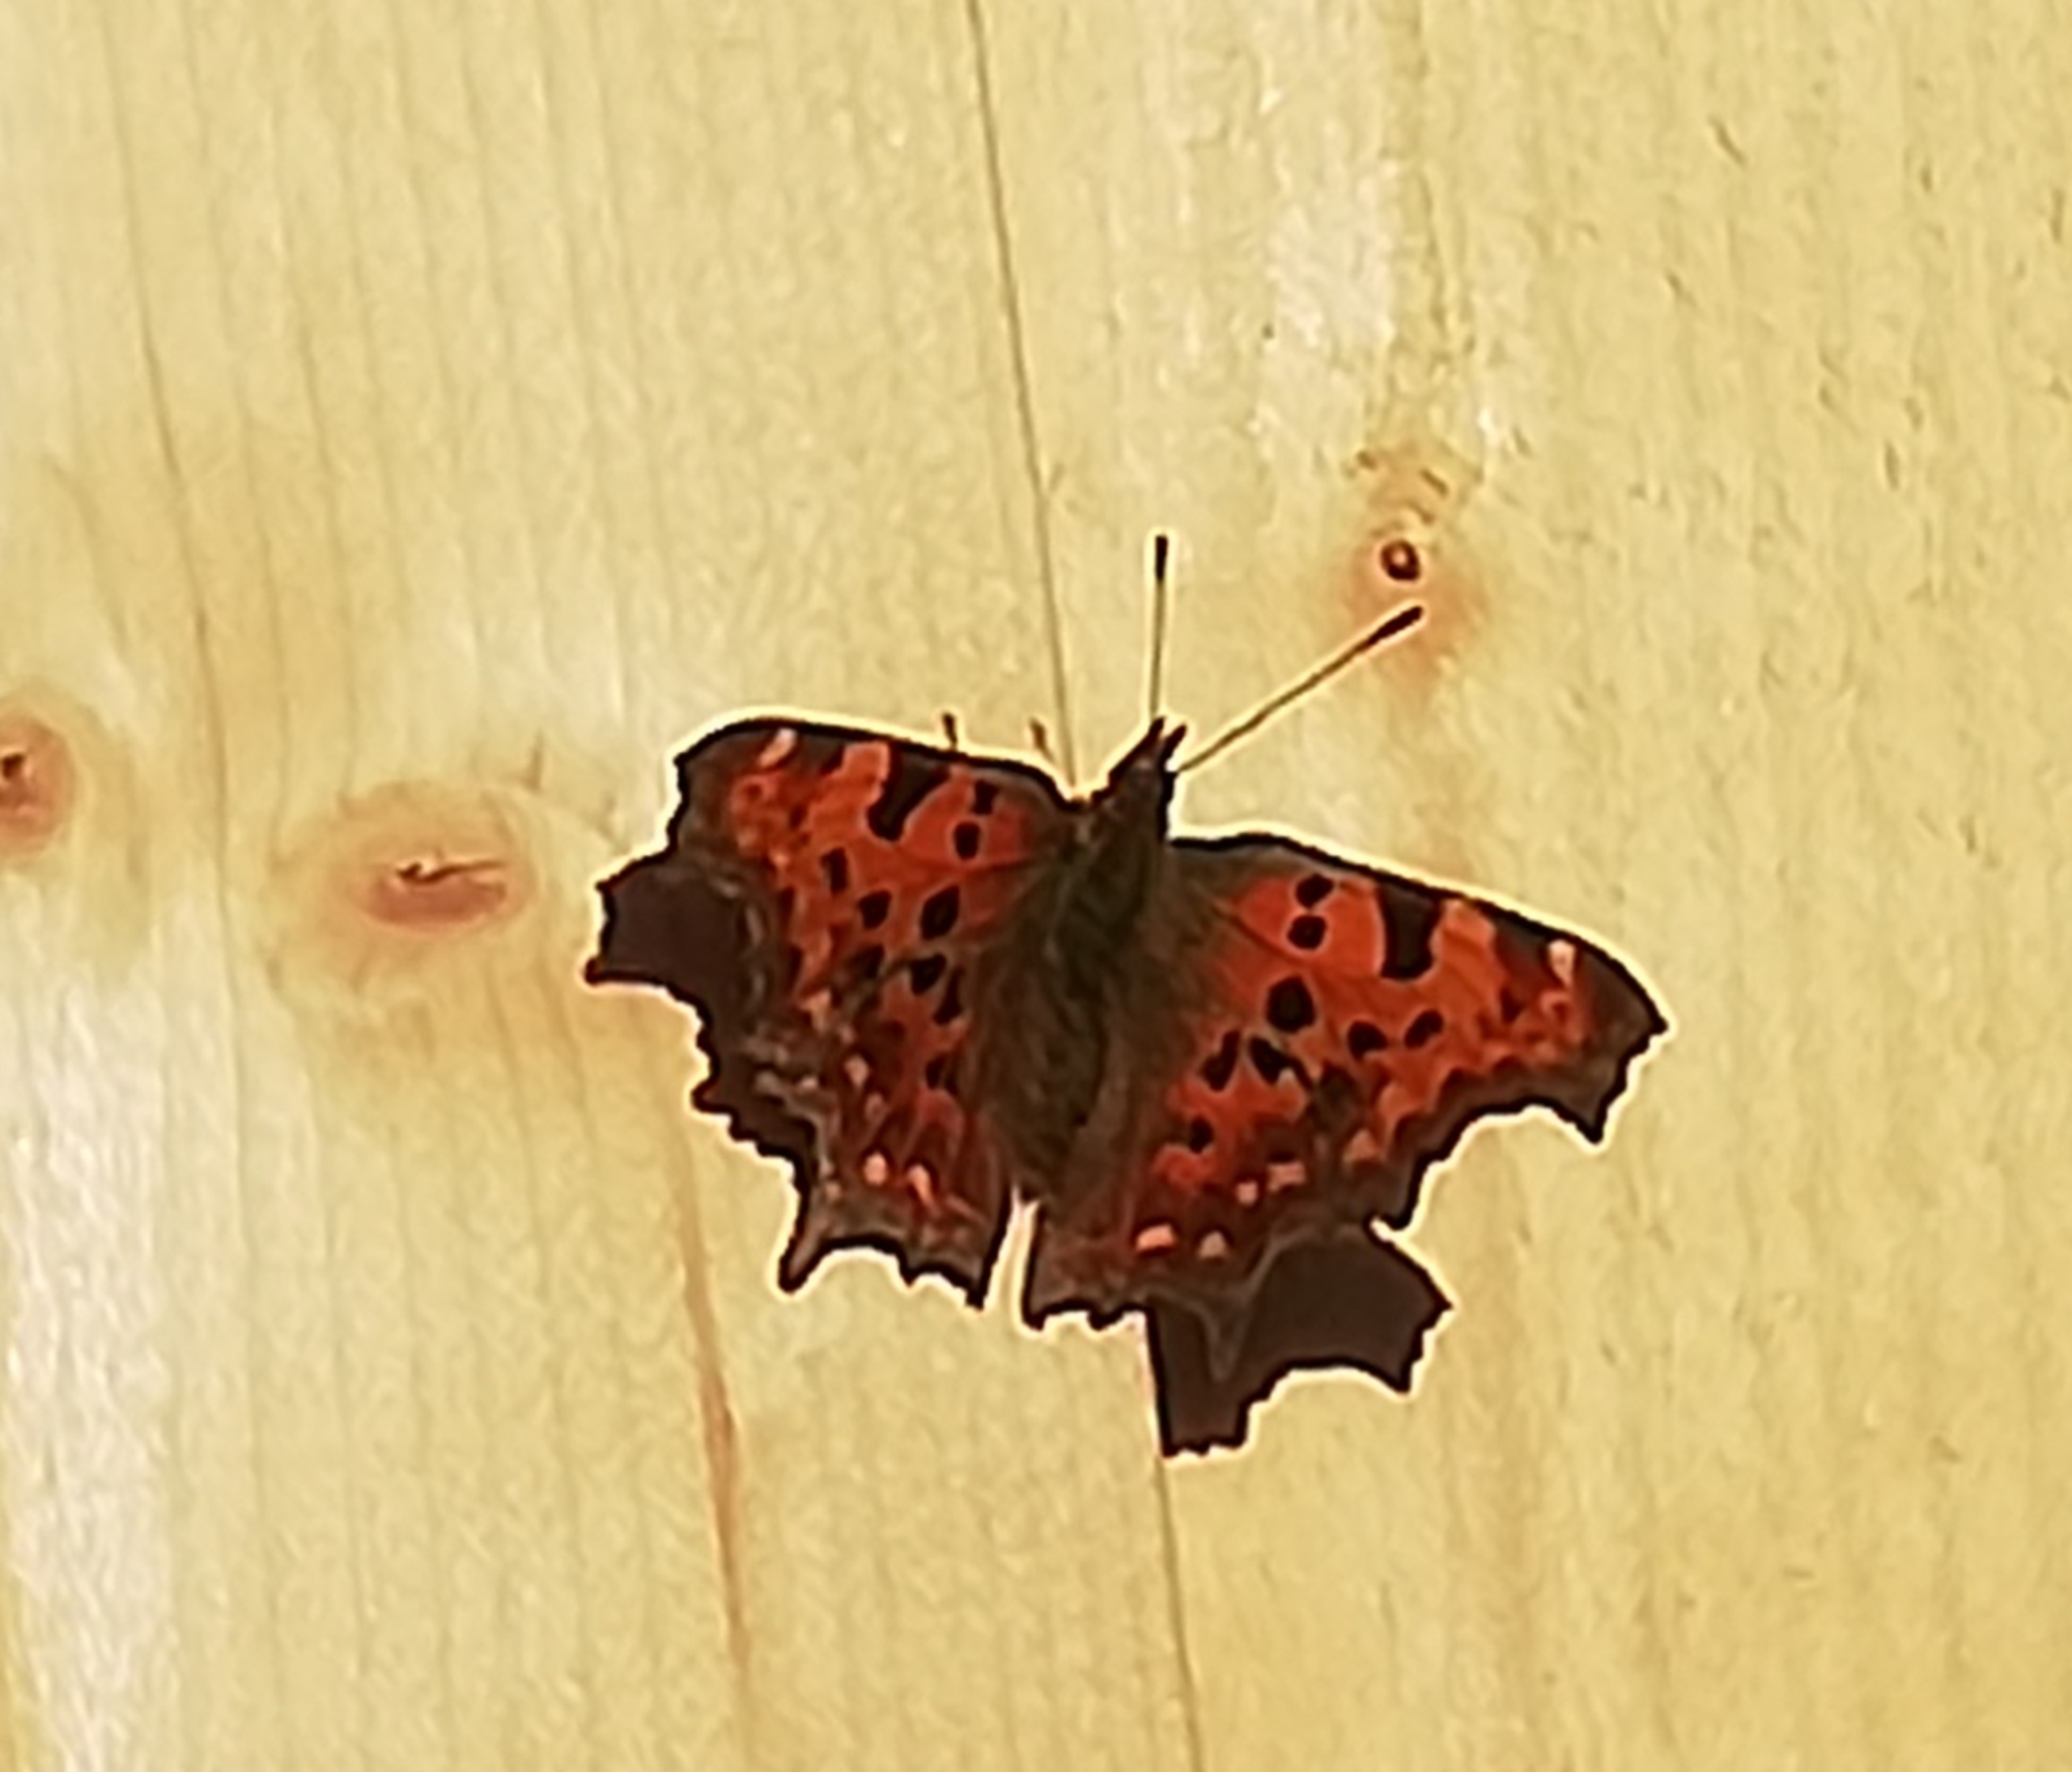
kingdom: Animalia
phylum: Arthropoda
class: Insecta
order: Lepidoptera
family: Nymphalidae
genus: Polygonia
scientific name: Polygonia c-album
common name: Det hvide C
